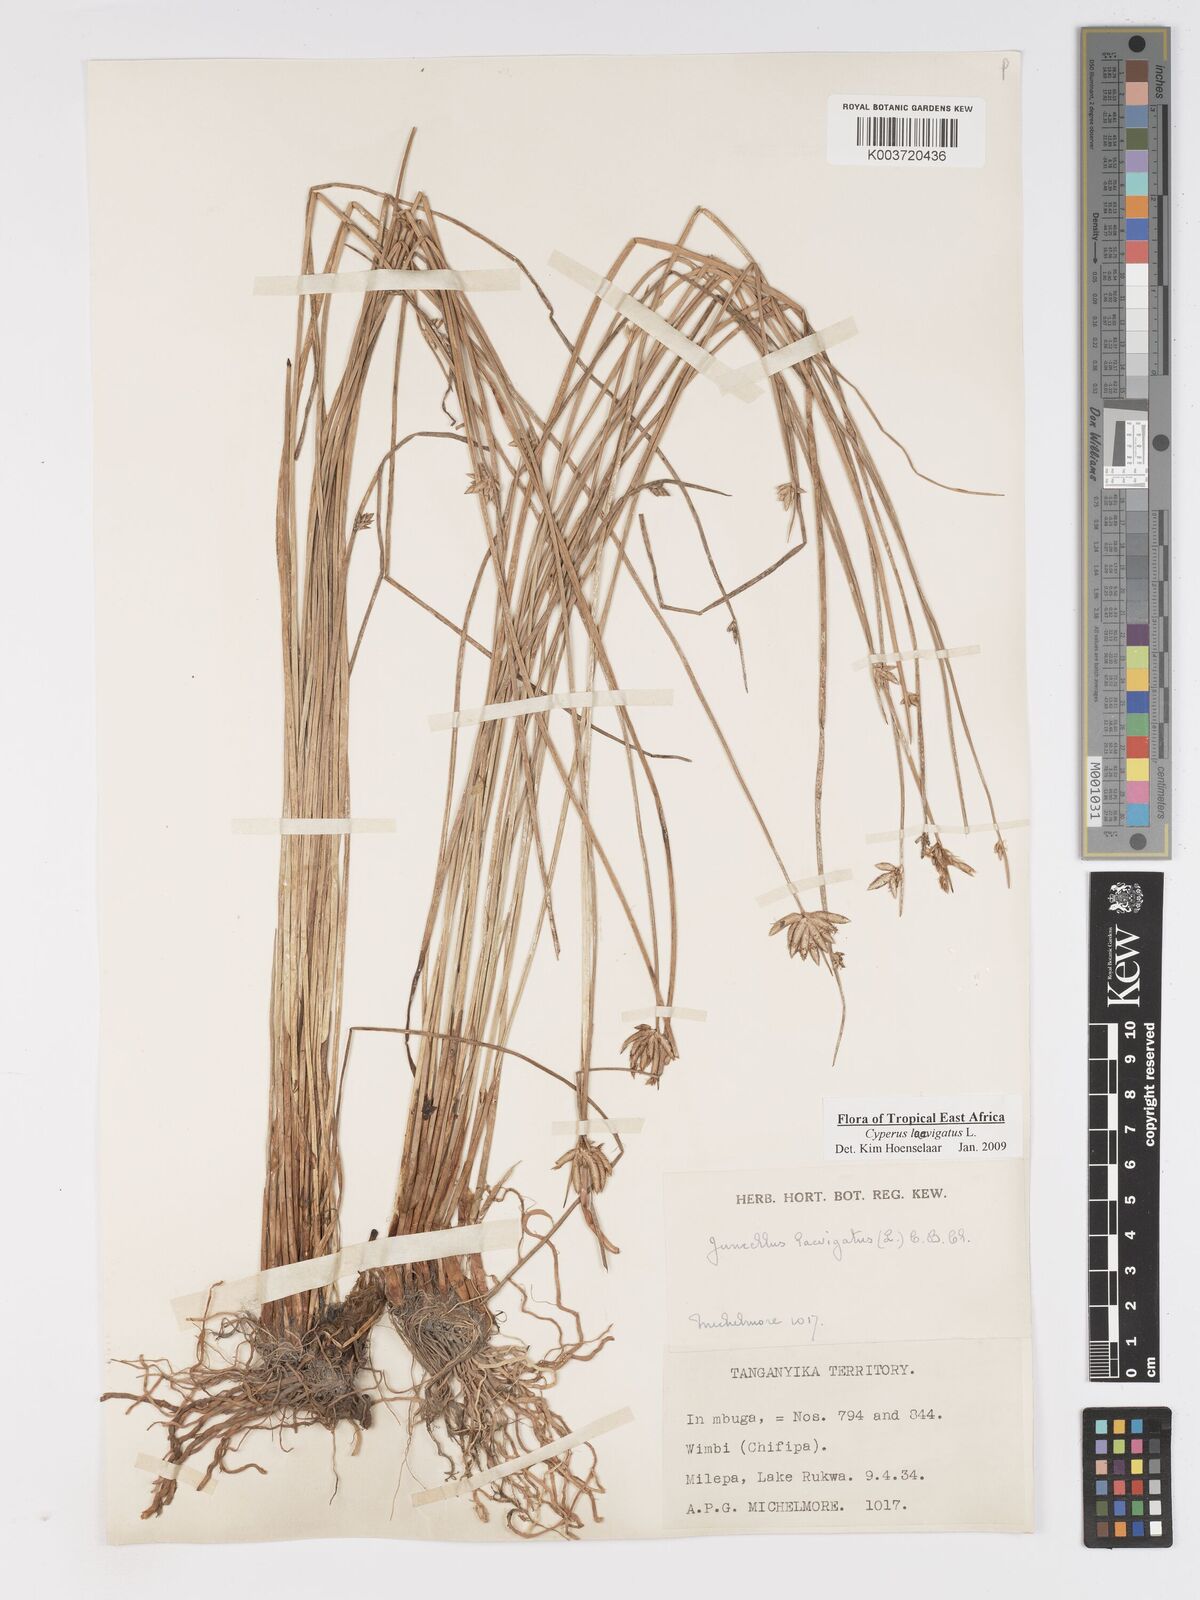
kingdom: Plantae
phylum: Tracheophyta
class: Liliopsida
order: Poales
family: Cyperaceae
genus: Cyperus
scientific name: Cyperus laevigatus
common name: Smooth flat sedge
